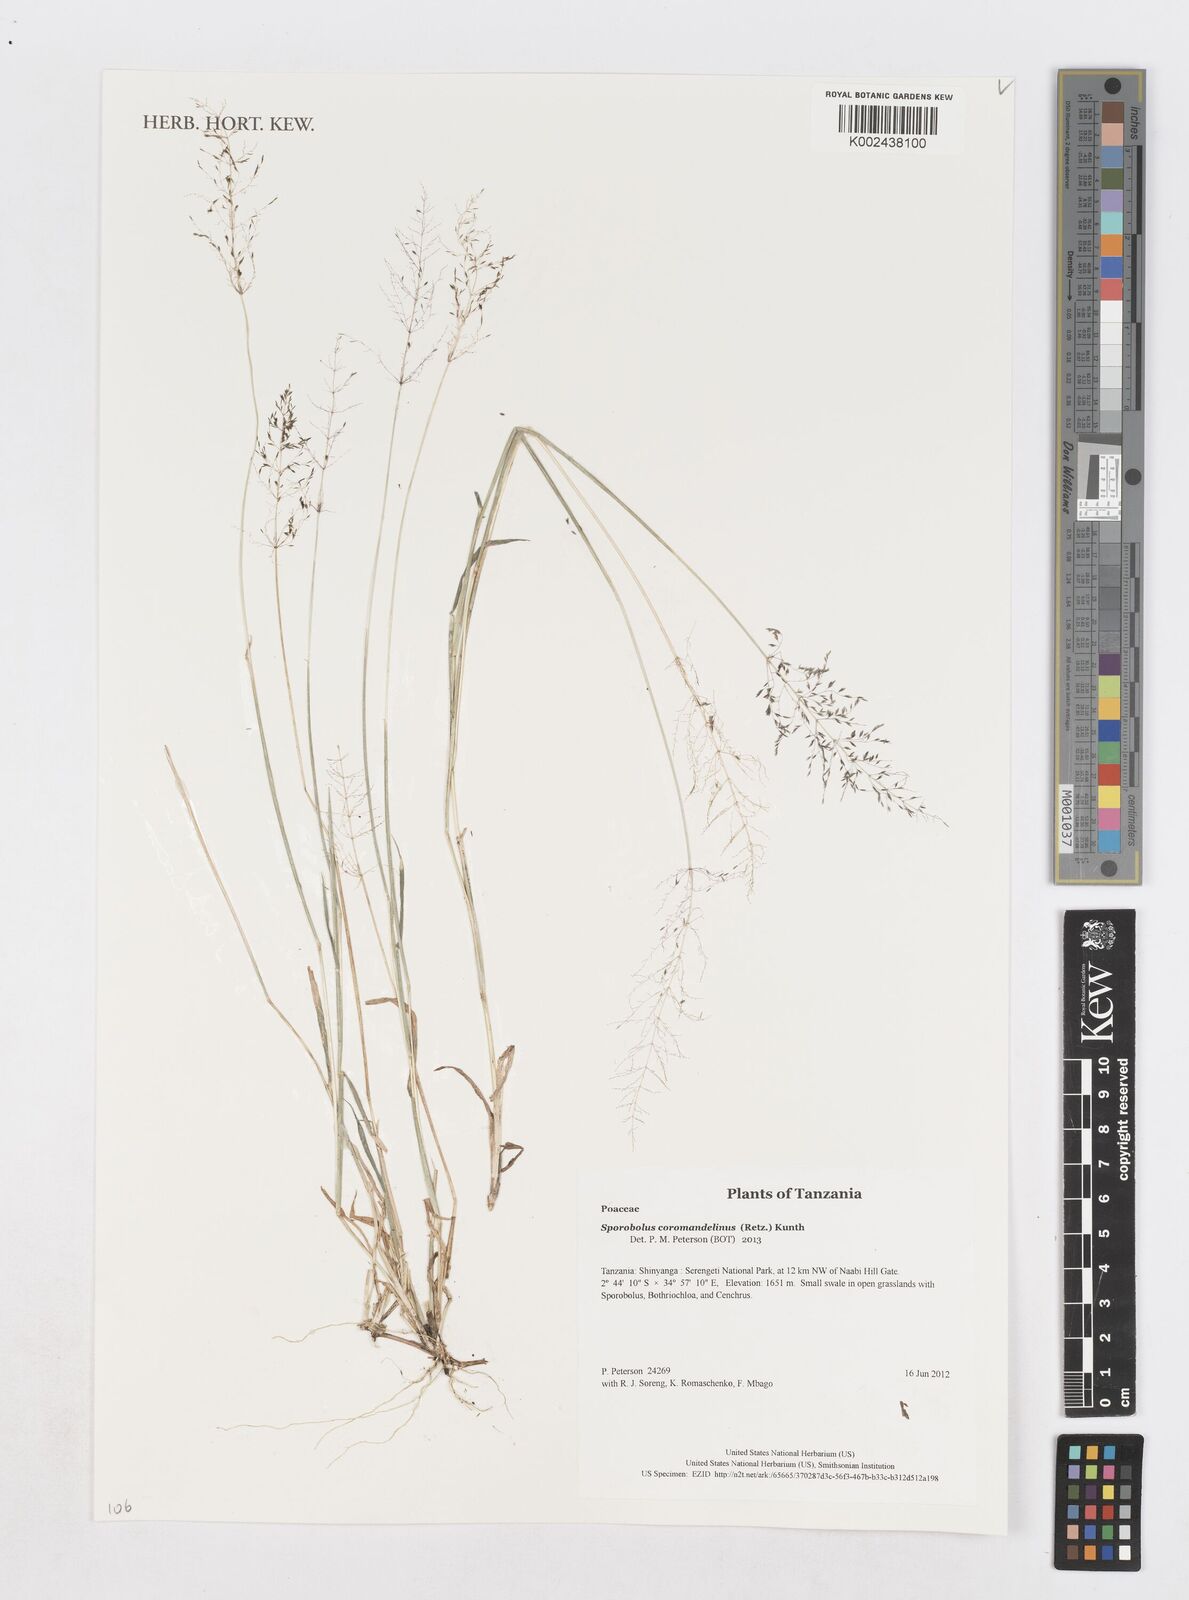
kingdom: Plantae
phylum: Tracheophyta
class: Liliopsida
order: Poales
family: Poaceae
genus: Sporobolus
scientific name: Sporobolus coromandelianus
